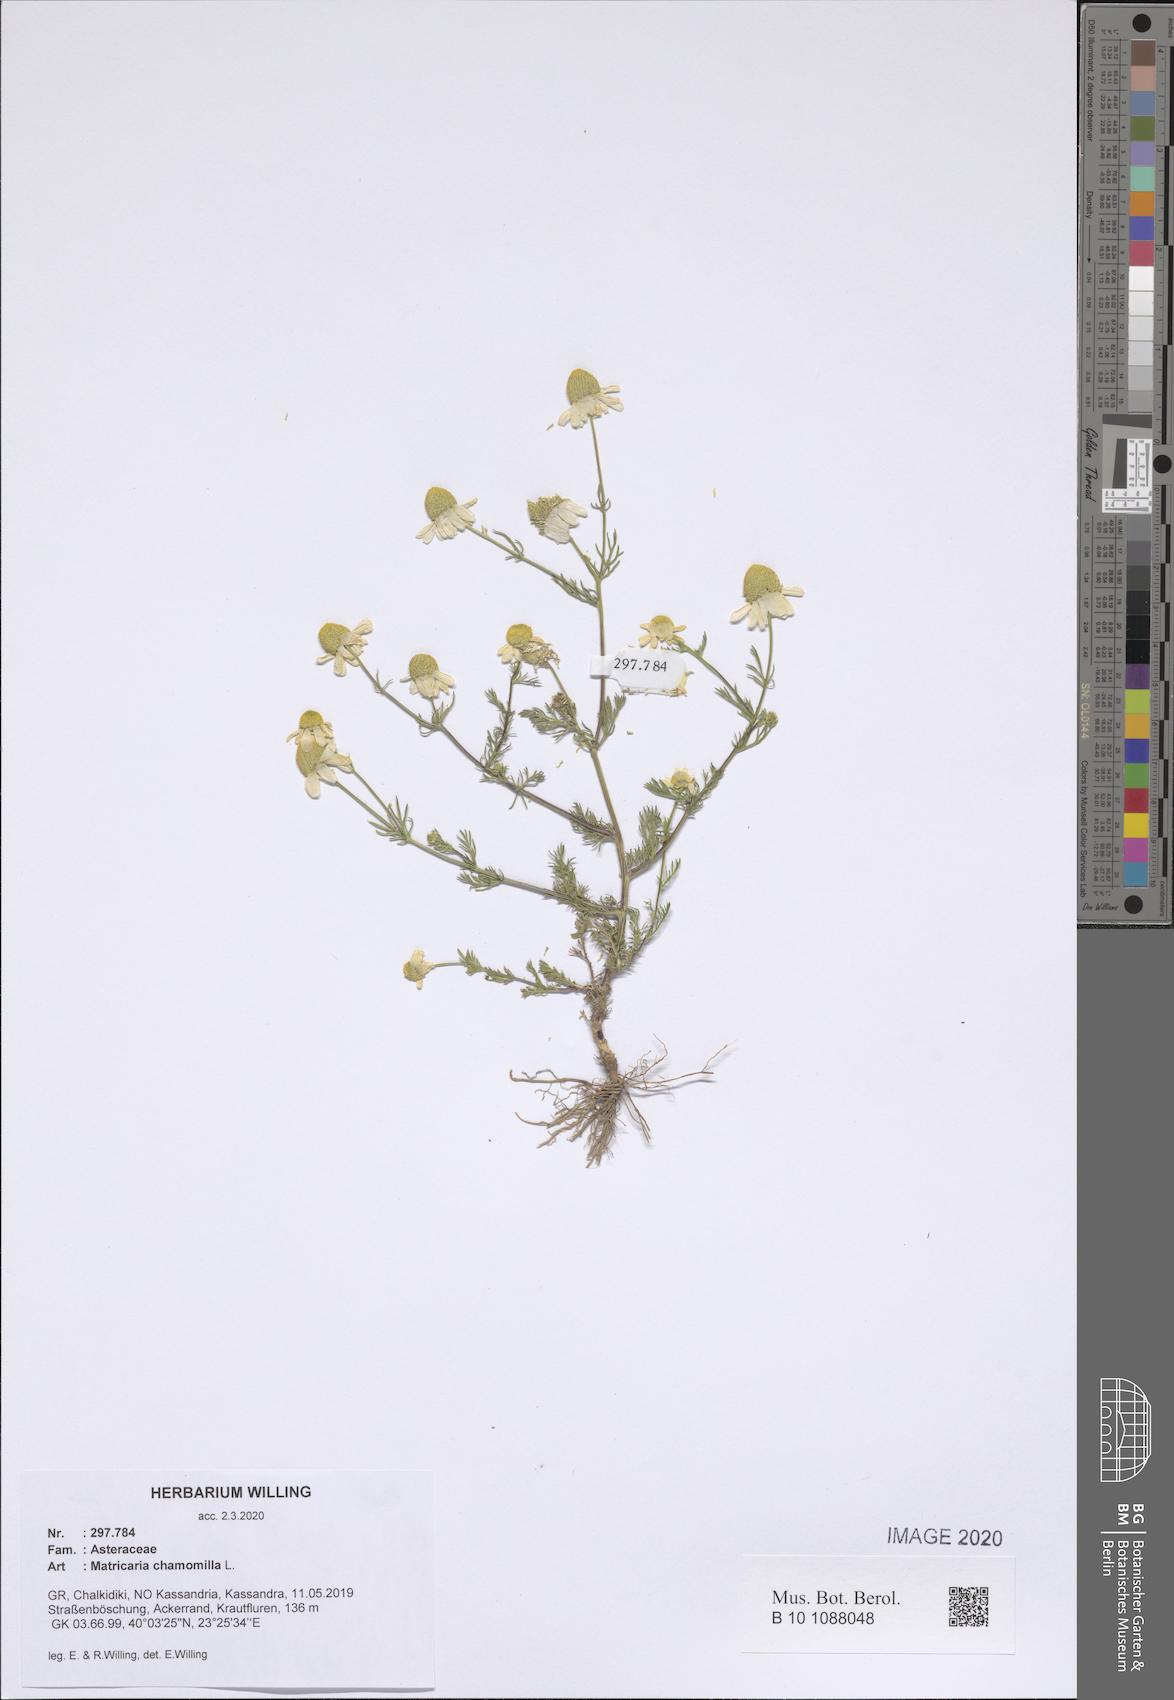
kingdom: Plantae
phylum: Tracheophyta
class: Magnoliopsida
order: Asterales
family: Asteraceae
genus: Matricaria
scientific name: Matricaria chamomilla
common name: Scented mayweed
